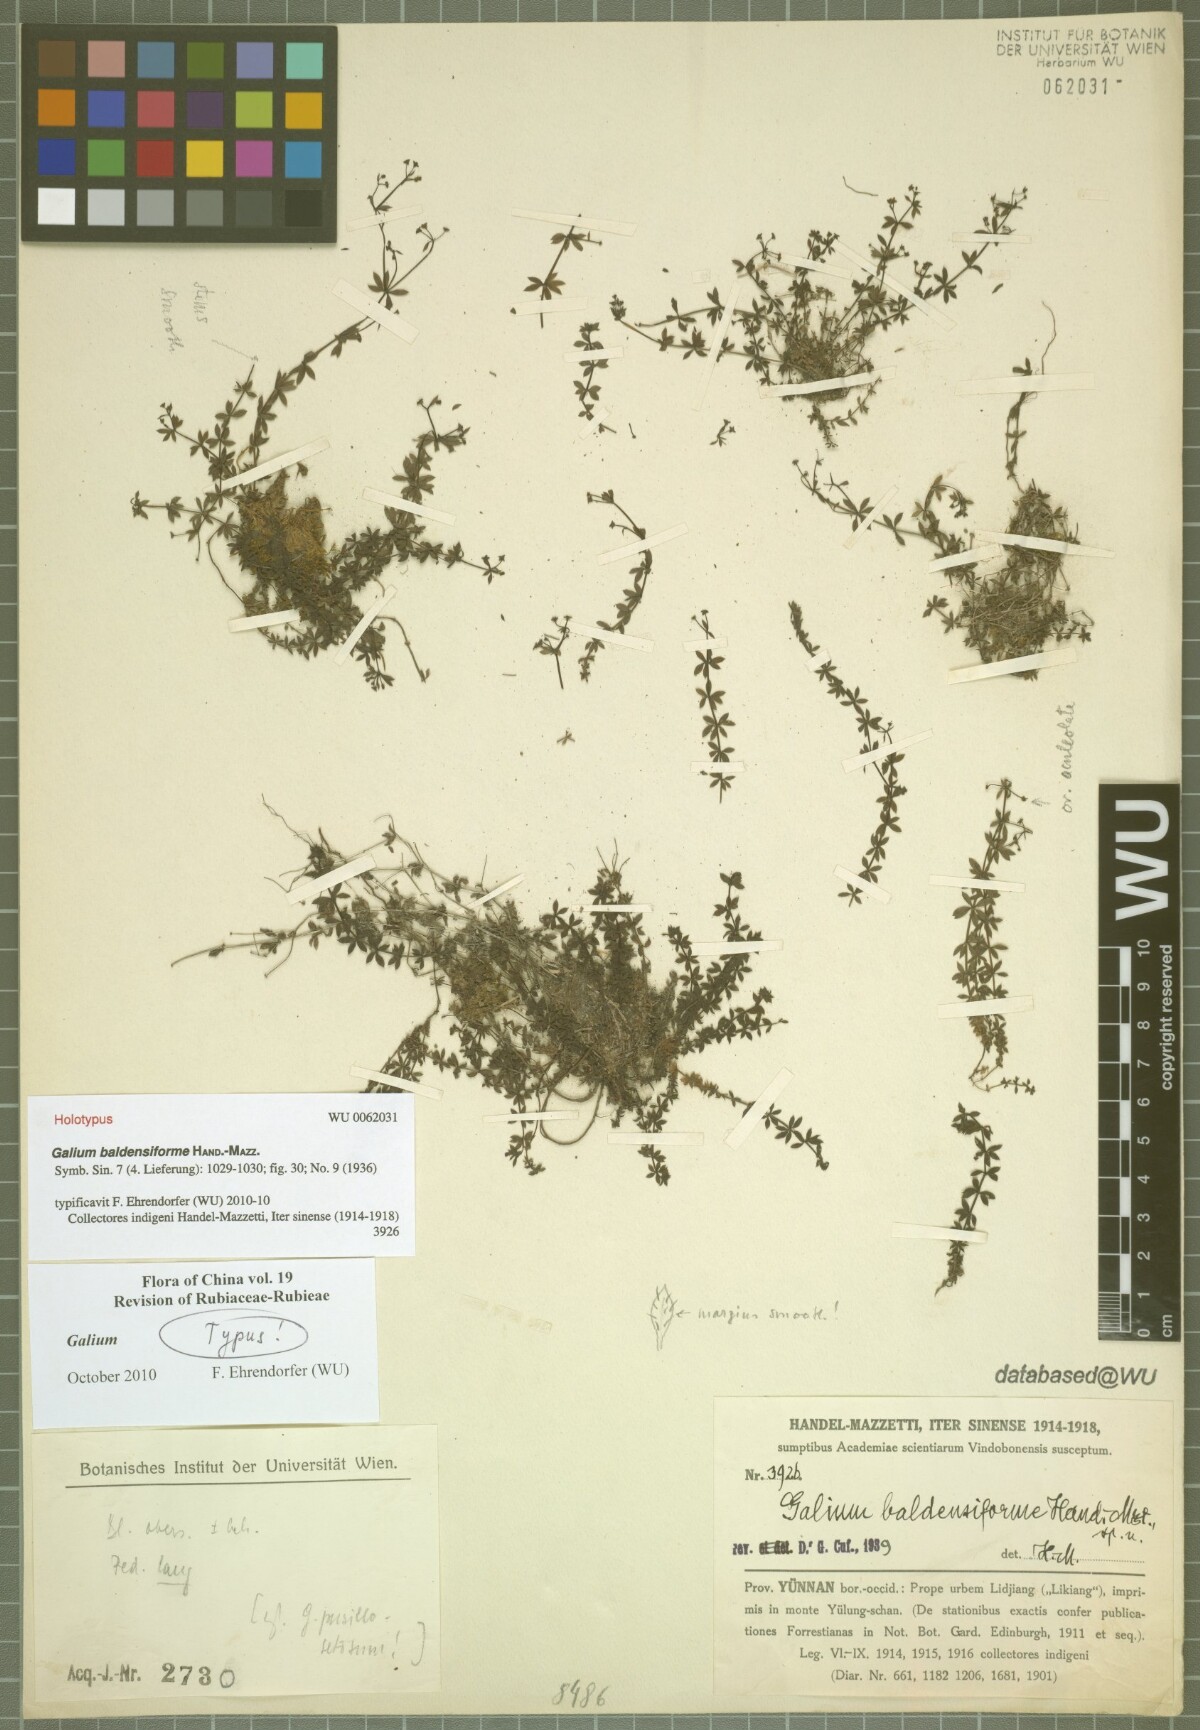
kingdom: Plantae
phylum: Tracheophyta
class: Magnoliopsida
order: Gentianales
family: Rubiaceae
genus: Galium
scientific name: Galium baldensiforme
